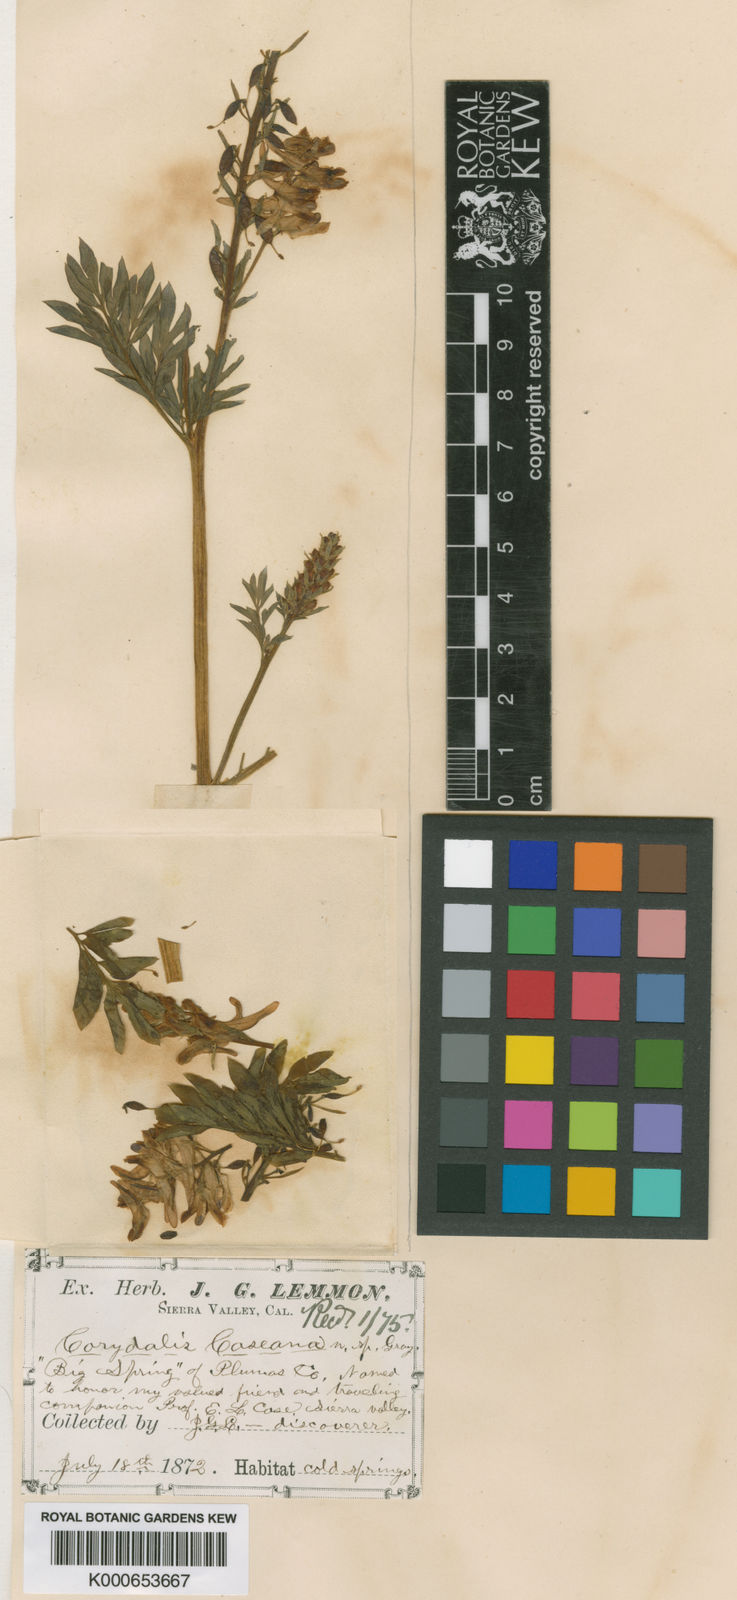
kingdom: Plantae
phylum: Tracheophyta
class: Magnoliopsida
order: Ranunculales
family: Papaveraceae
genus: Corydalis
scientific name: Corydalis caseana
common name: Fitweed
